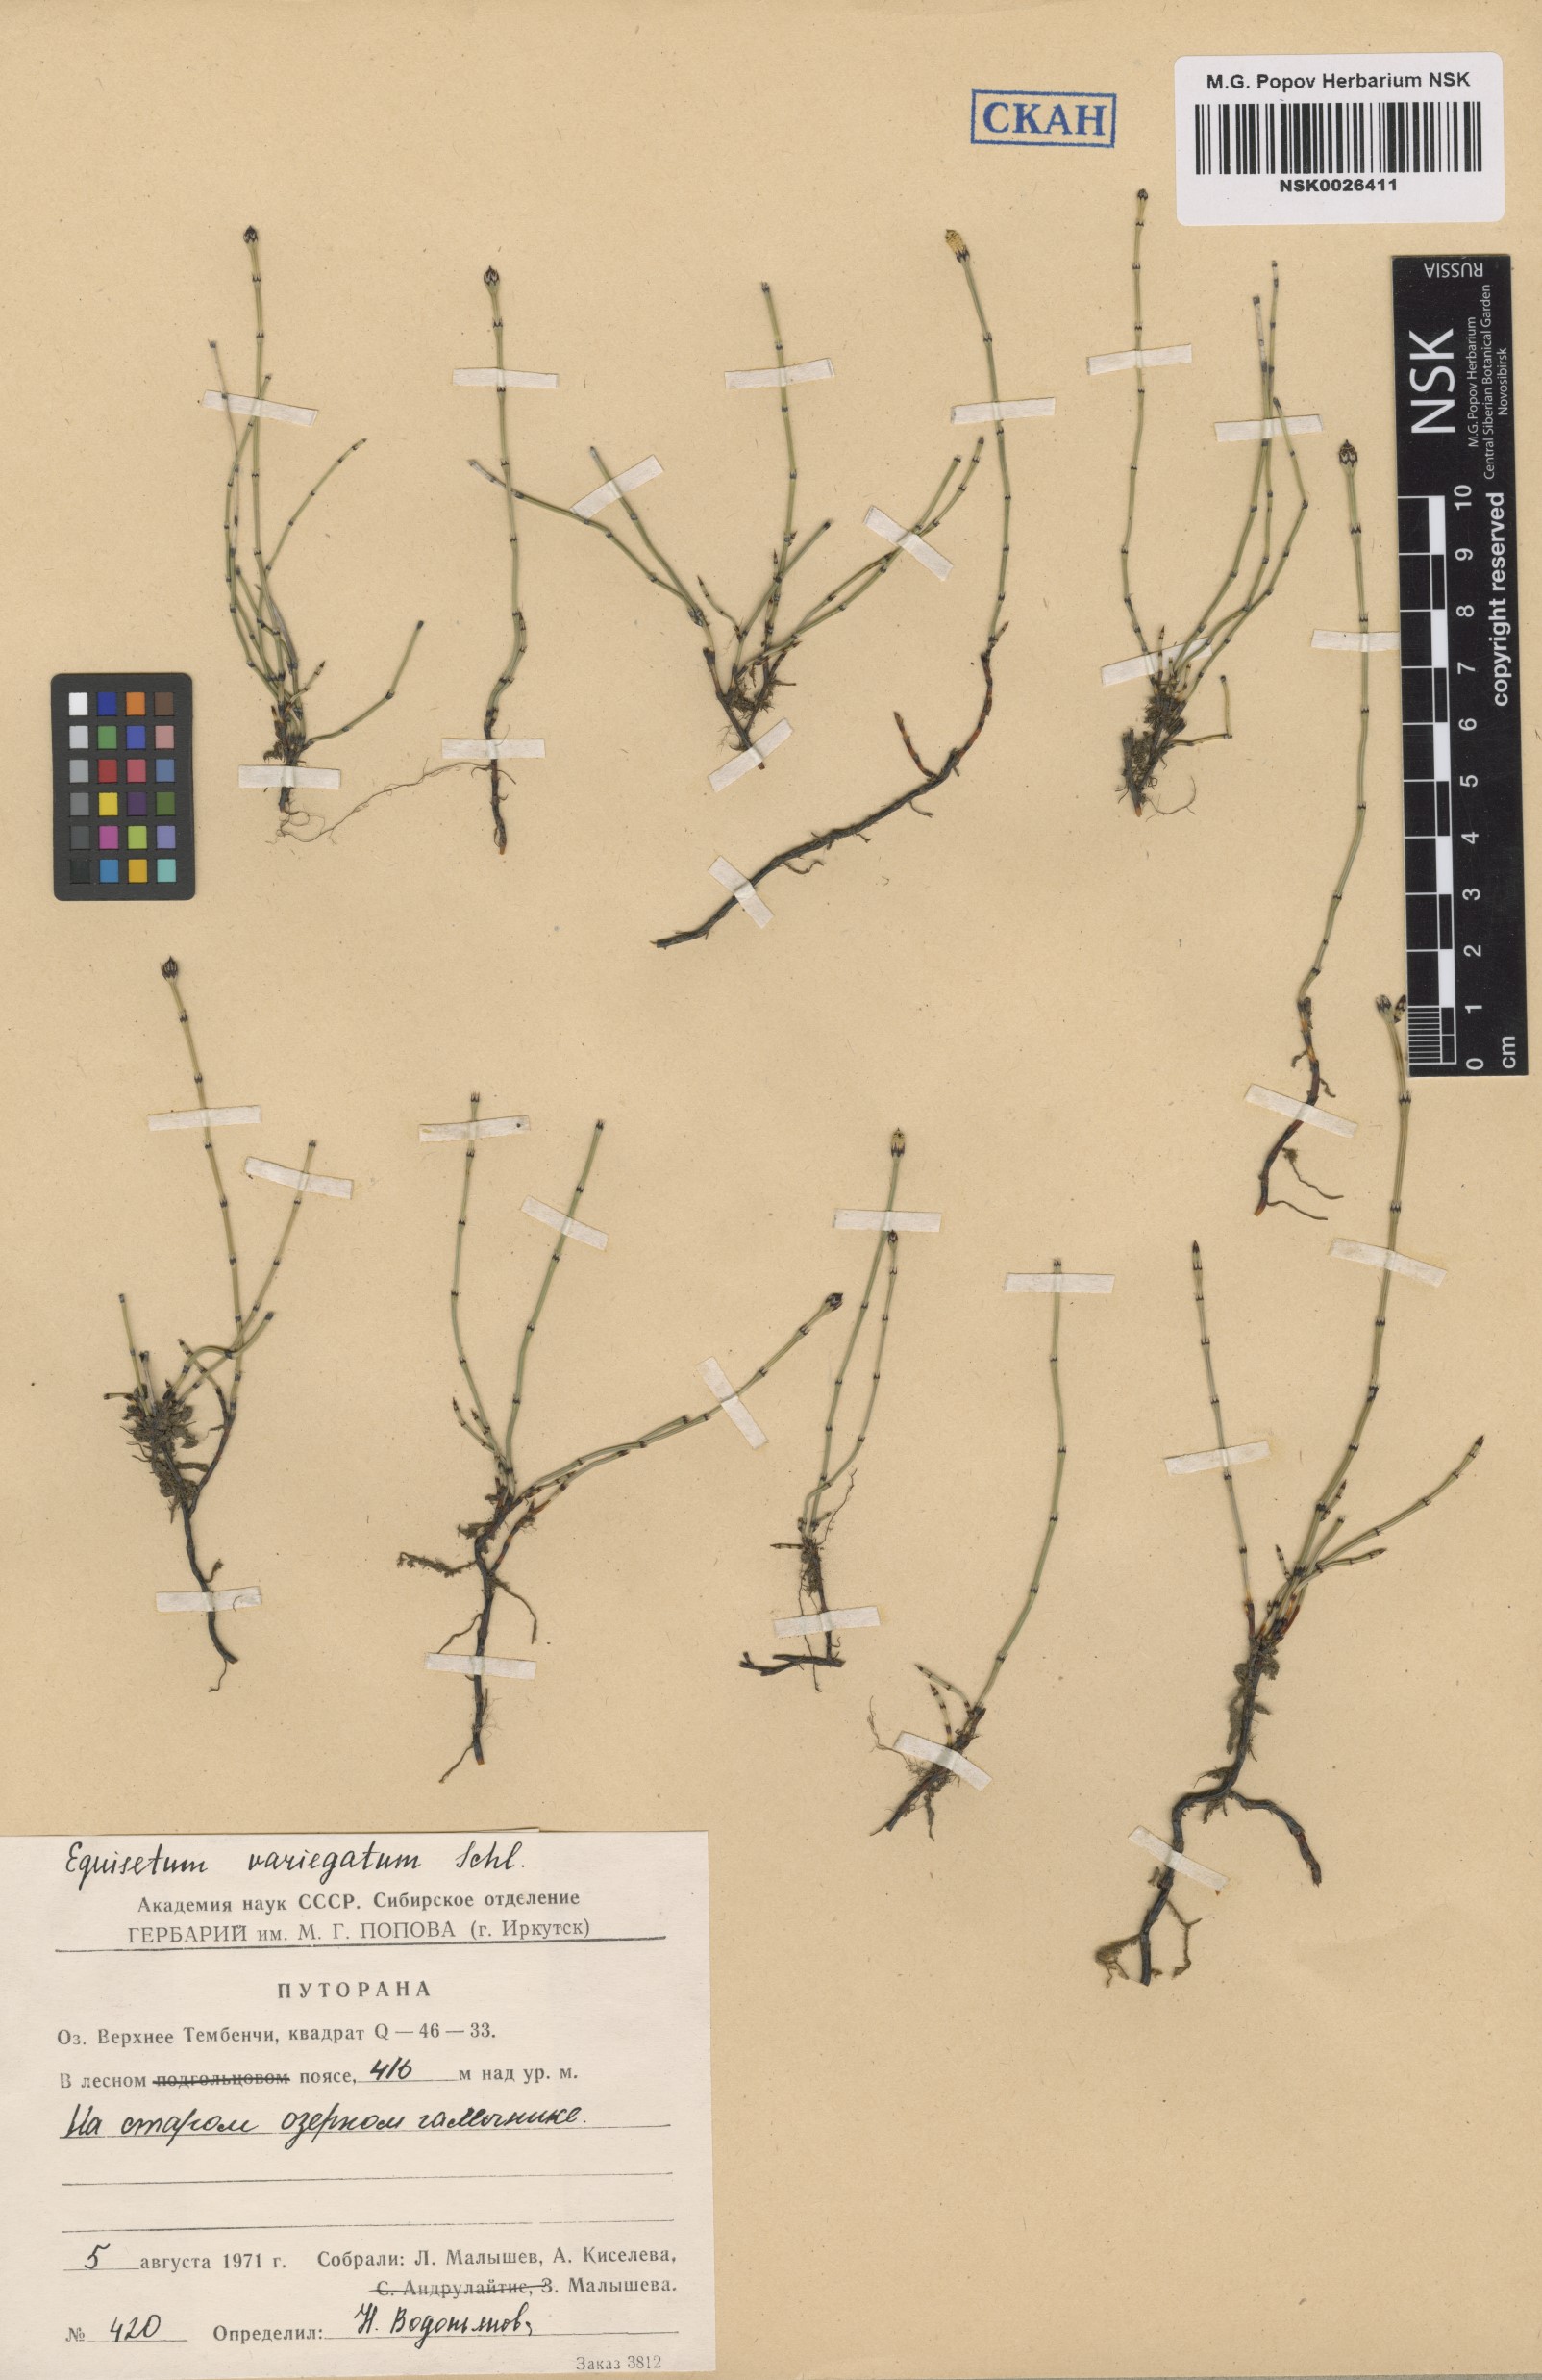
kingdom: Plantae
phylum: Tracheophyta
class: Polypodiopsida
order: Equisetales
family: Equisetaceae
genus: Equisetum
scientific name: Equisetum variegatum
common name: Variegated horsetail
